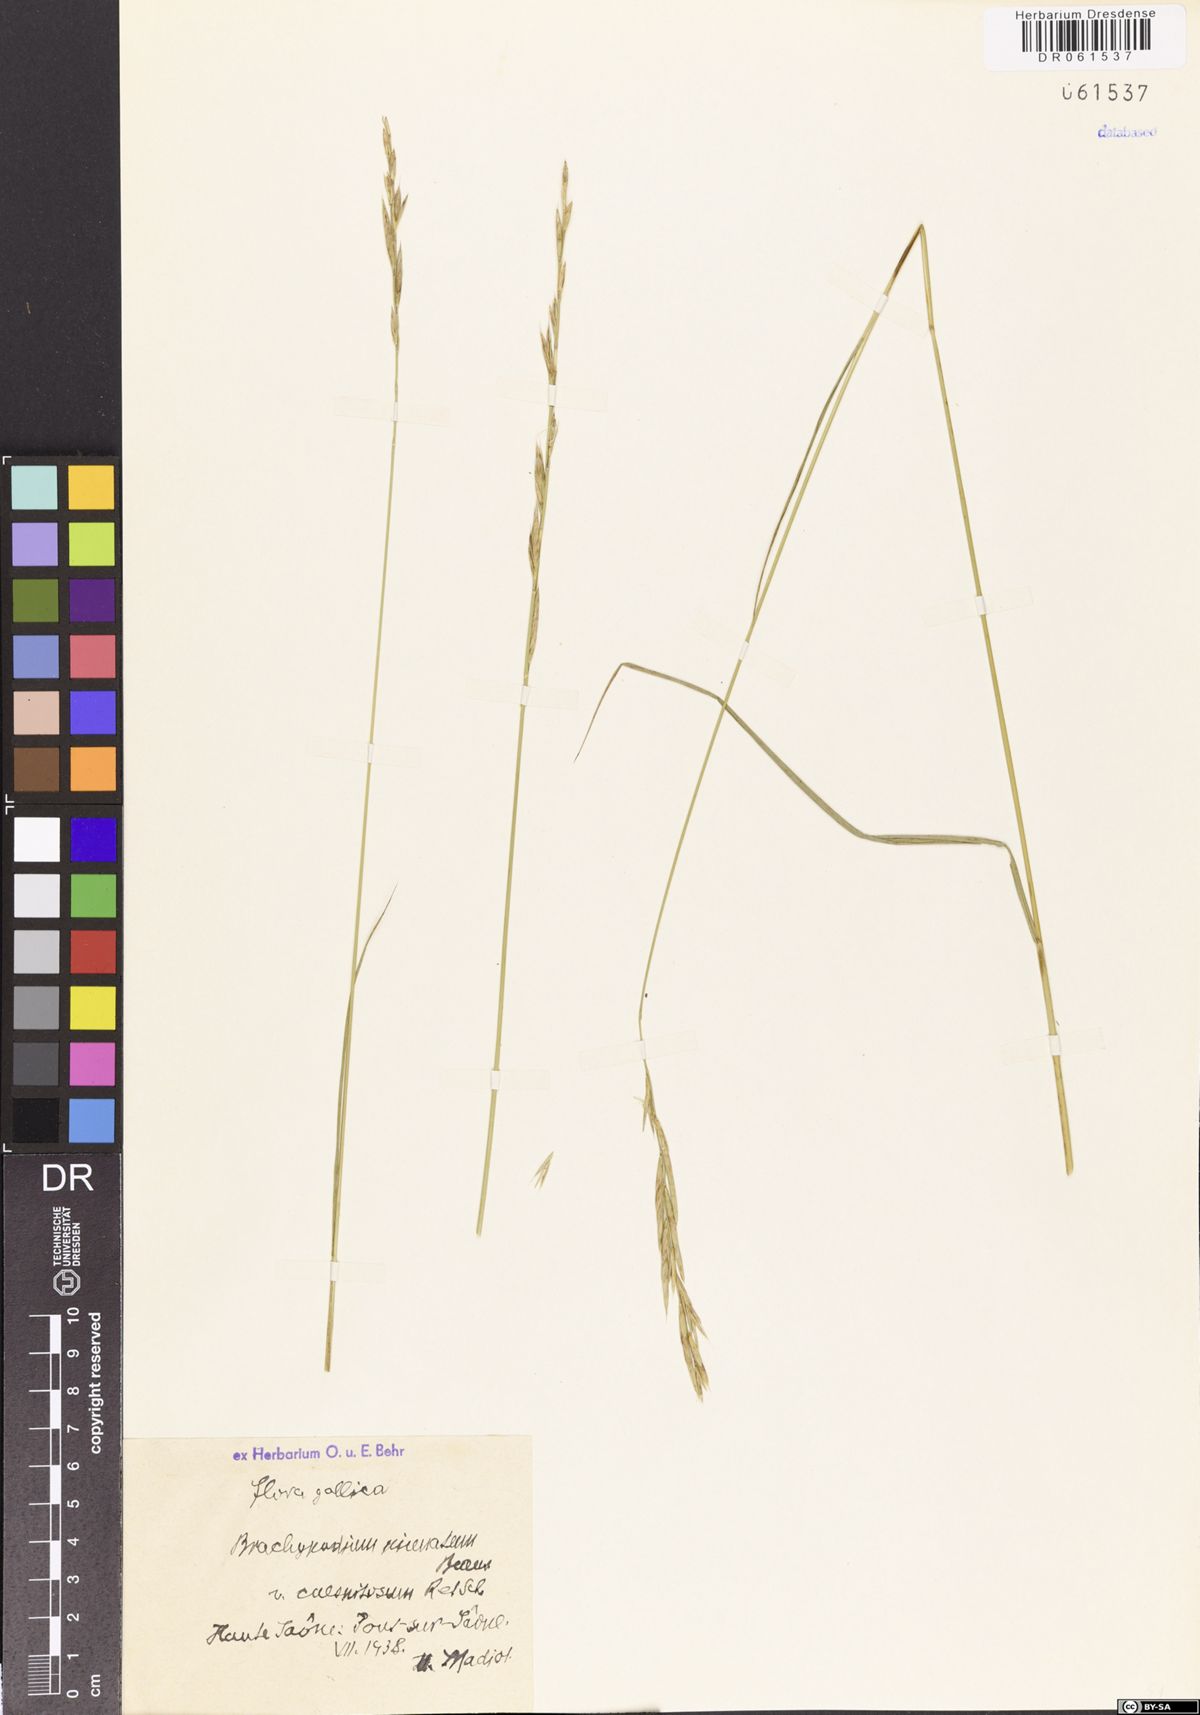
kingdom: Plantae
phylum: Tracheophyta
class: Liliopsida
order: Poales
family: Poaceae
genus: Brachypodium
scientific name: Brachypodium pinnatum
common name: Tor grass
